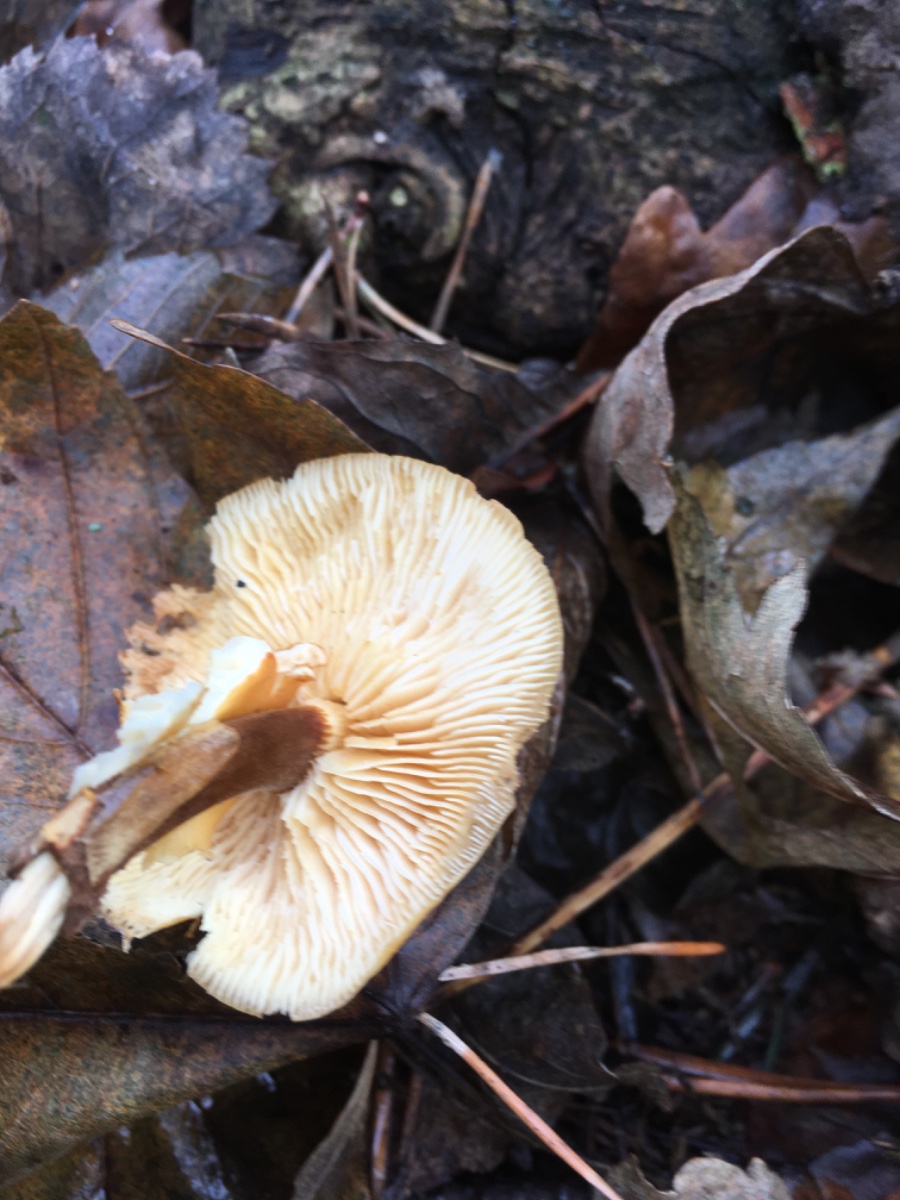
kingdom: Fungi
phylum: Basidiomycota
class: Agaricomycetes
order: Agaricales
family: Physalacriaceae
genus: Flammulina
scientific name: Flammulina velutipes
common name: gul fløjlsfod
